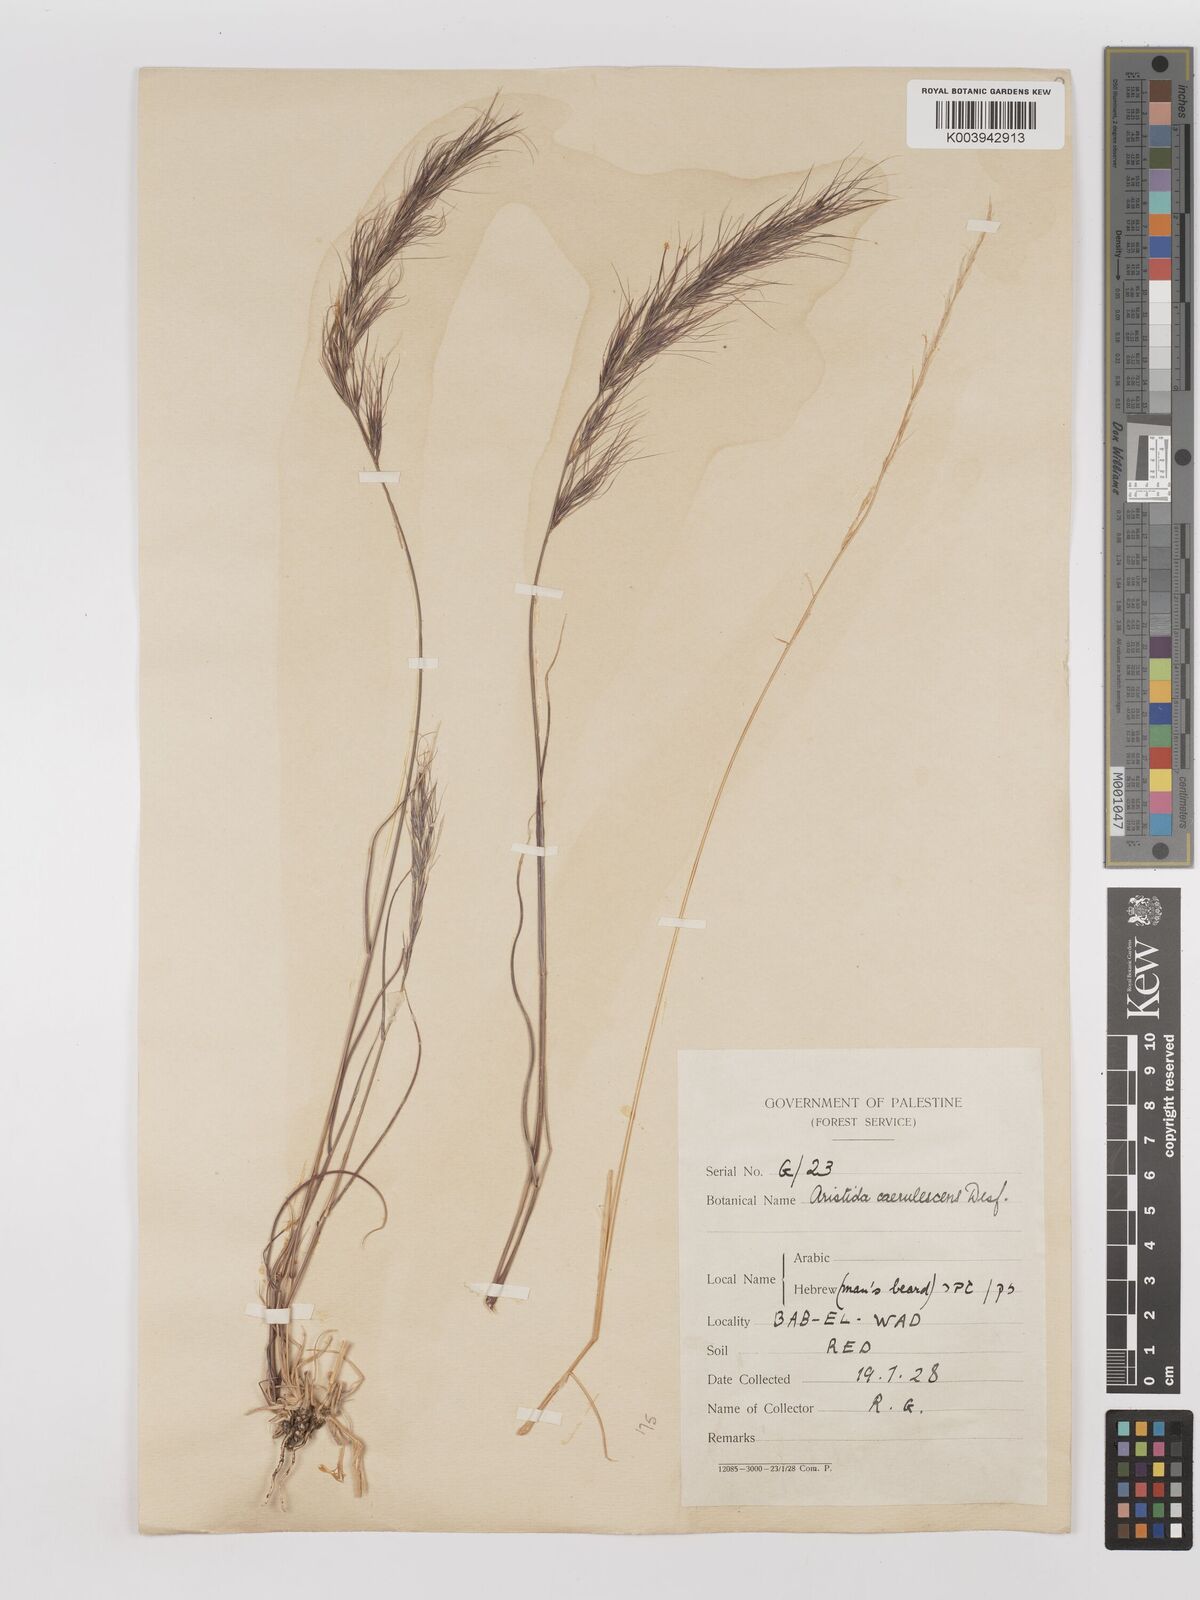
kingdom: Plantae
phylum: Tracheophyta
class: Liliopsida
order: Poales
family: Poaceae
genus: Aristida
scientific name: Aristida adscensionis
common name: Sixweeks threeawn
